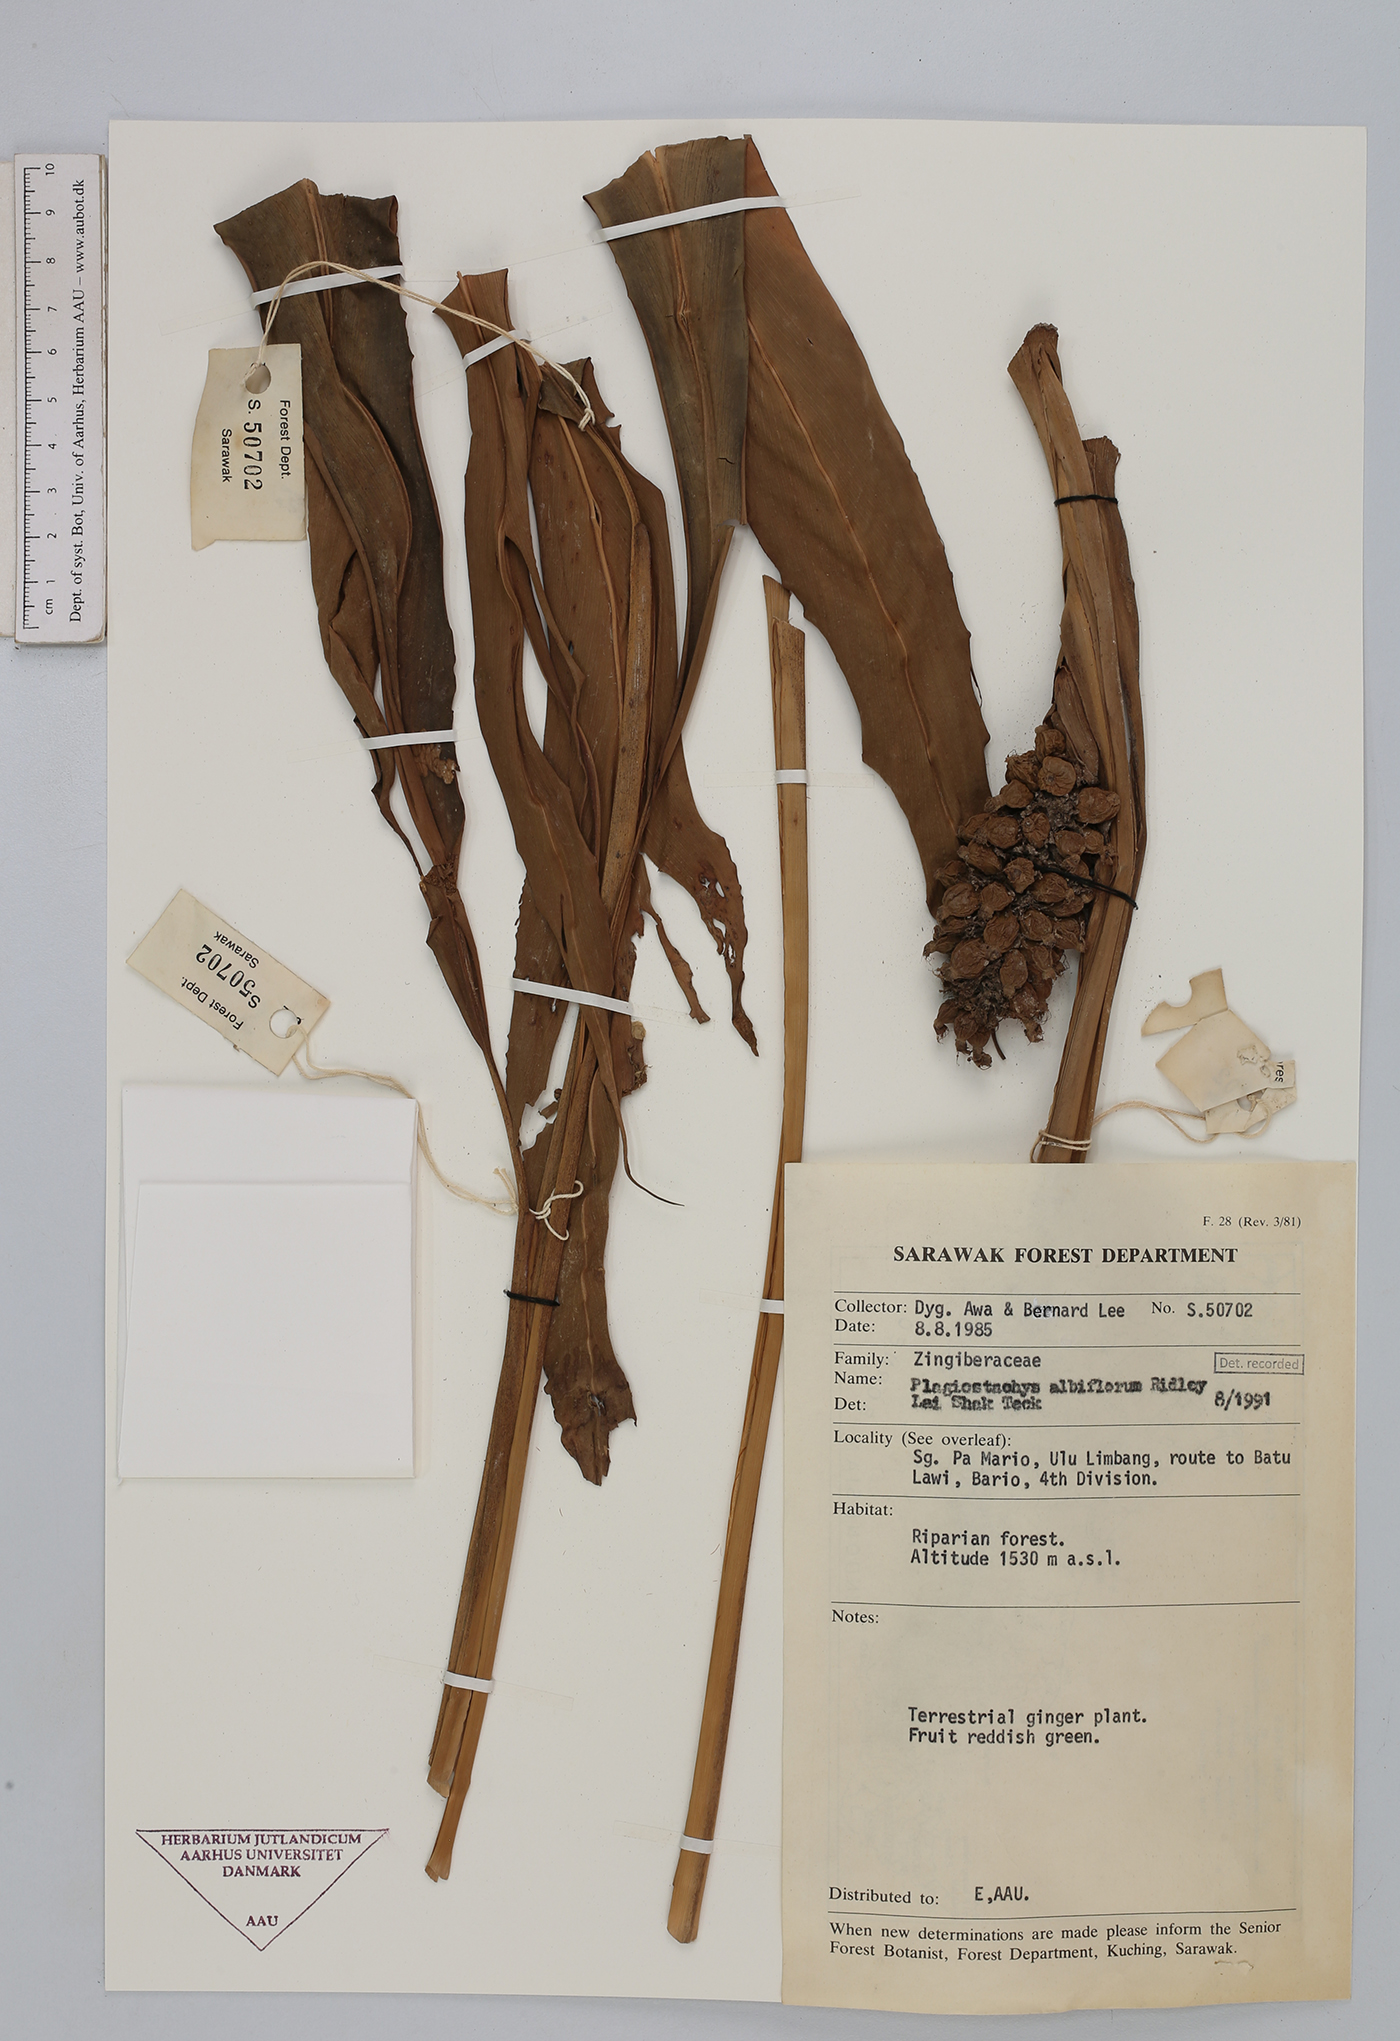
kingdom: Plantae
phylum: Tracheophyta
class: Liliopsida
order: Zingiberales
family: Zingiberaceae
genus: Plagiostachys
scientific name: Plagiostachys albiflora
